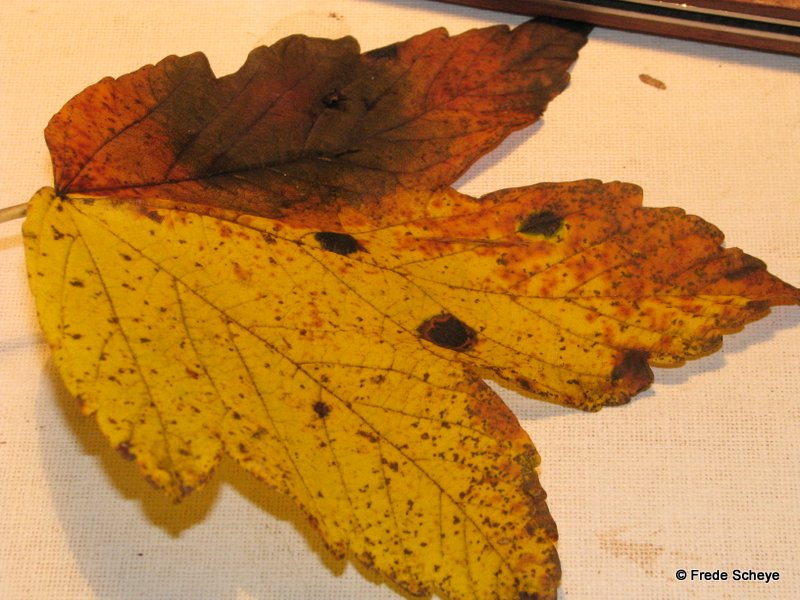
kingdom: Fungi
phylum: Ascomycota
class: Leotiomycetes
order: Rhytismatales
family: Rhytismataceae
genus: Rhytisma
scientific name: Rhytisma acerinum
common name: ahorn-rynkeplet
